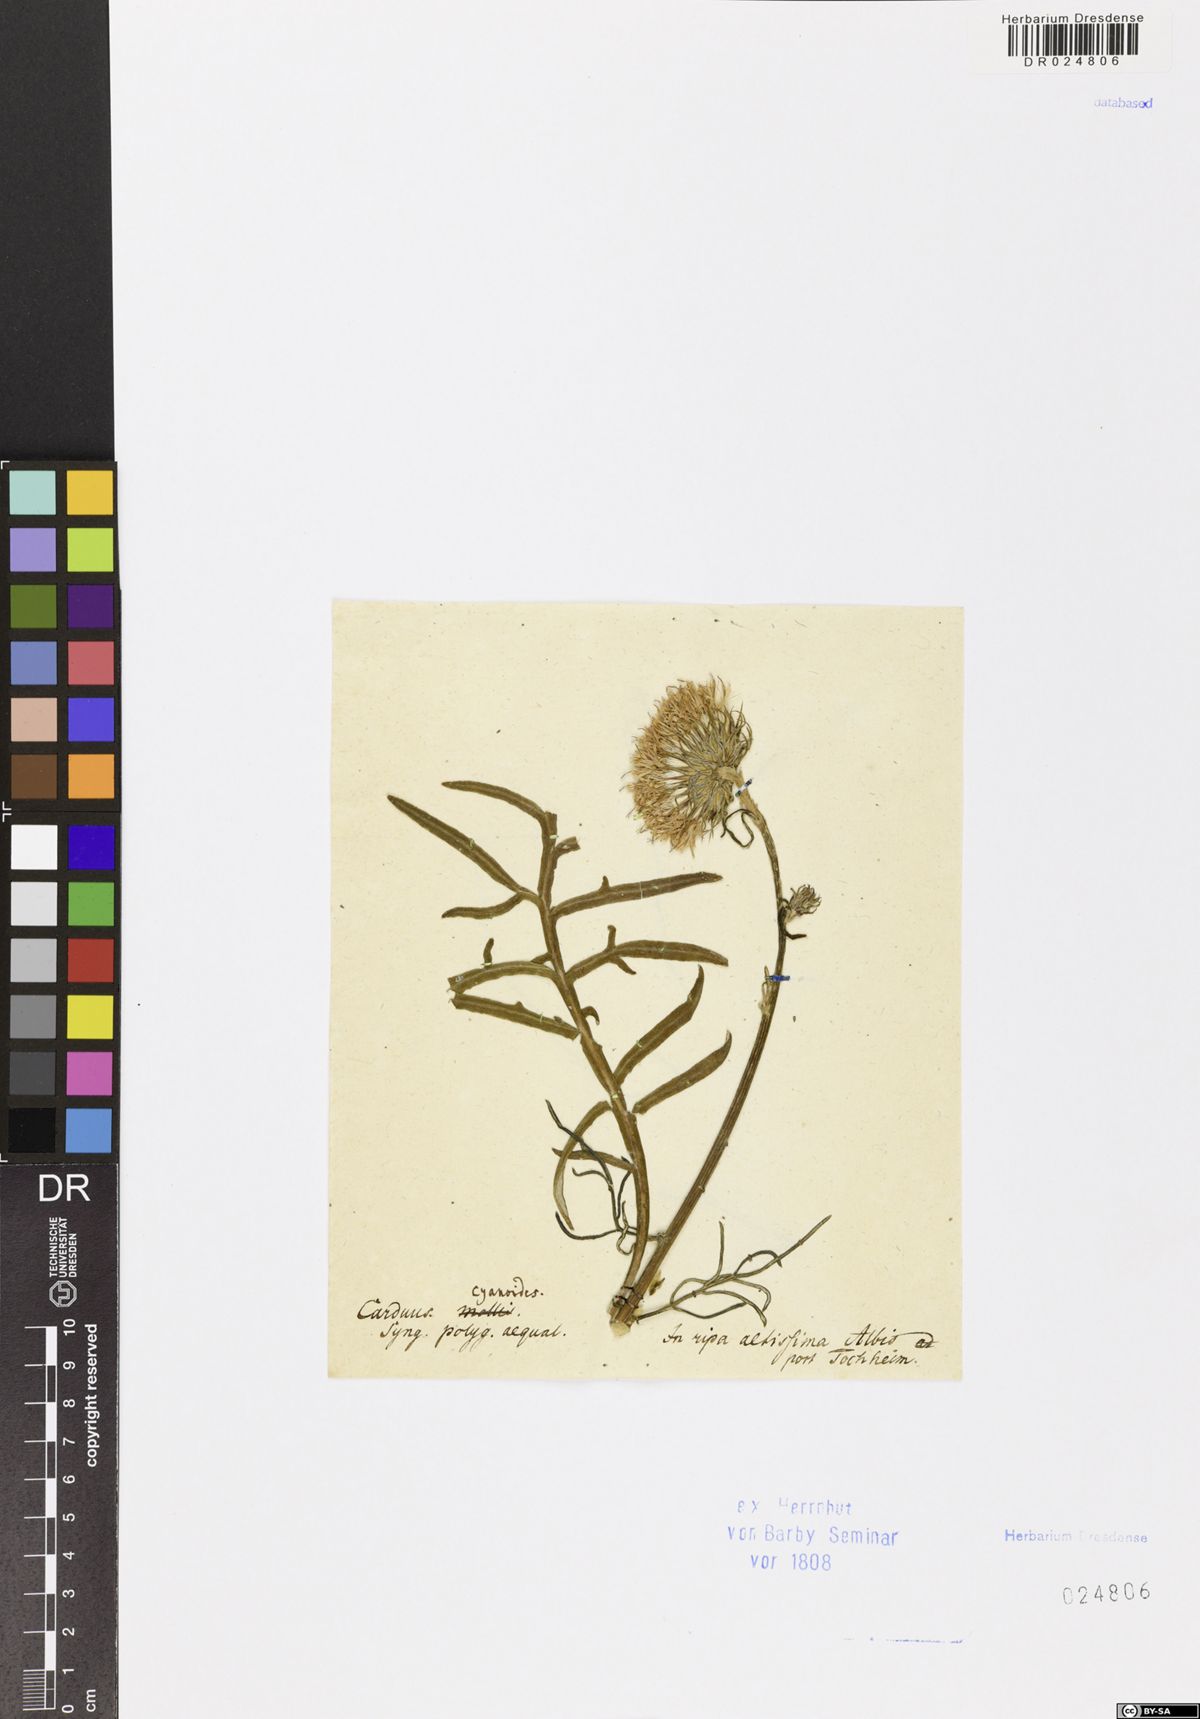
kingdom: Plantae
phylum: Tracheophyta
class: Magnoliopsida
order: Asterales
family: Asteraceae
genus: Jurinea
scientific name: Jurinea cyanoides
